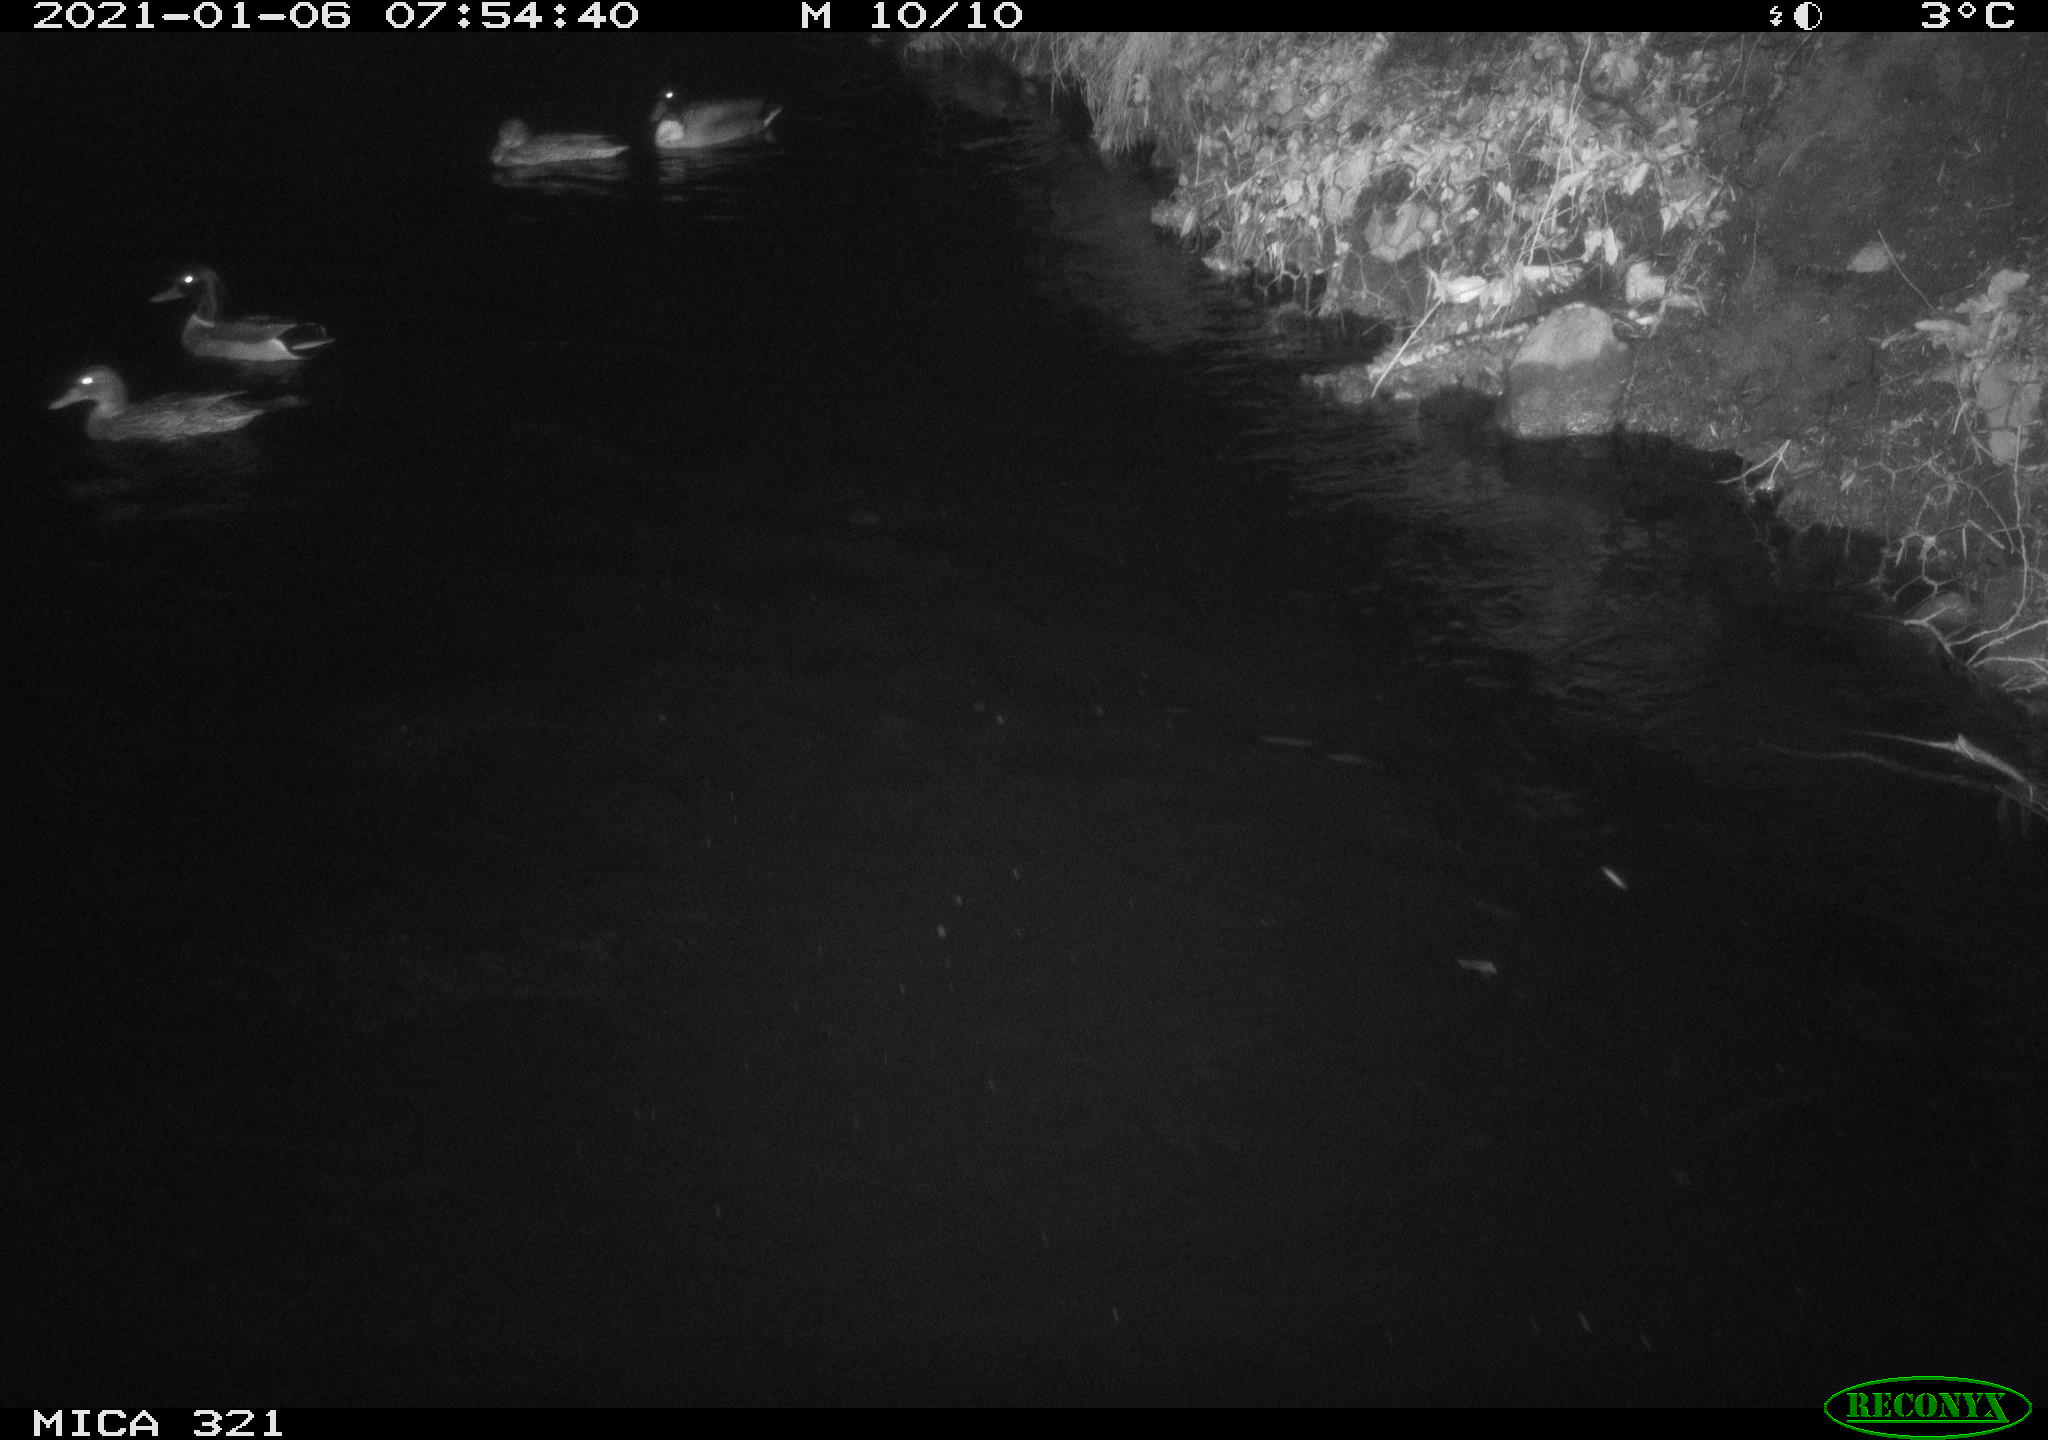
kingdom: Animalia
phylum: Chordata
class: Aves
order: Anseriformes
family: Anatidae
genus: Anas
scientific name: Anas platyrhynchos
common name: Mallard
